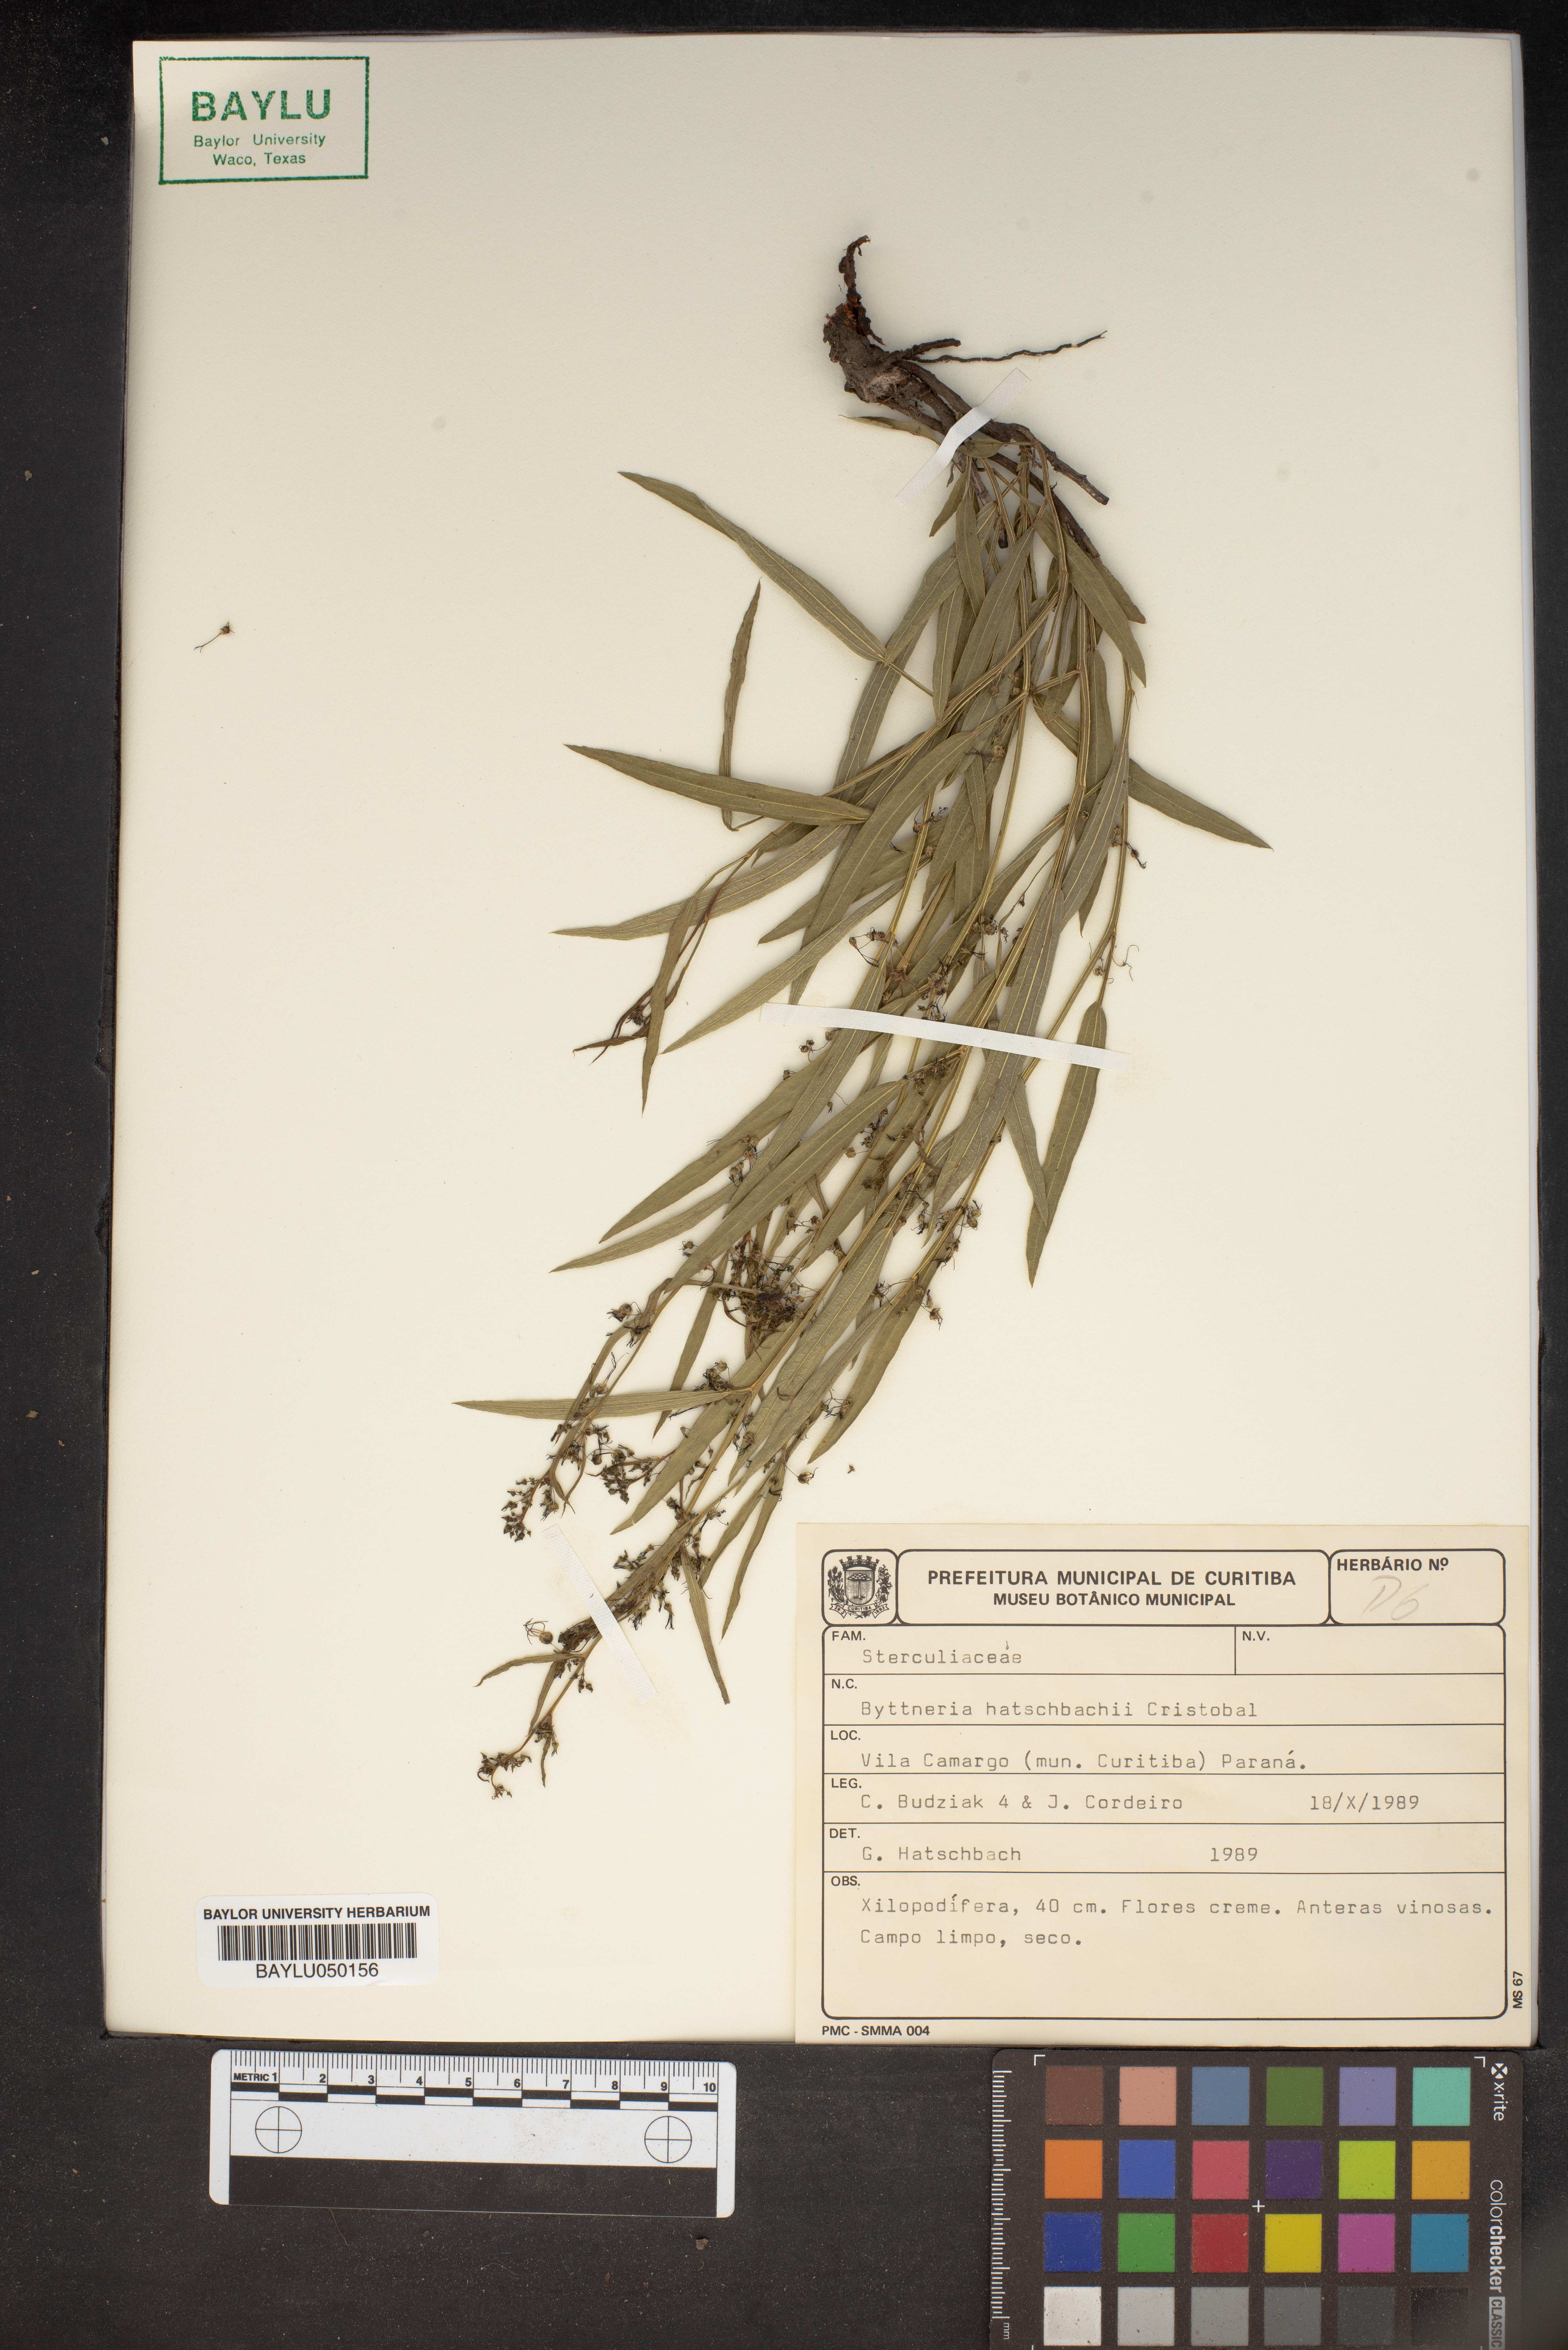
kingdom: Plantae
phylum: Tracheophyta
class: Magnoliopsida
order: Malvales
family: Malvaceae
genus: Byttneria
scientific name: Byttneria hatschbachii
